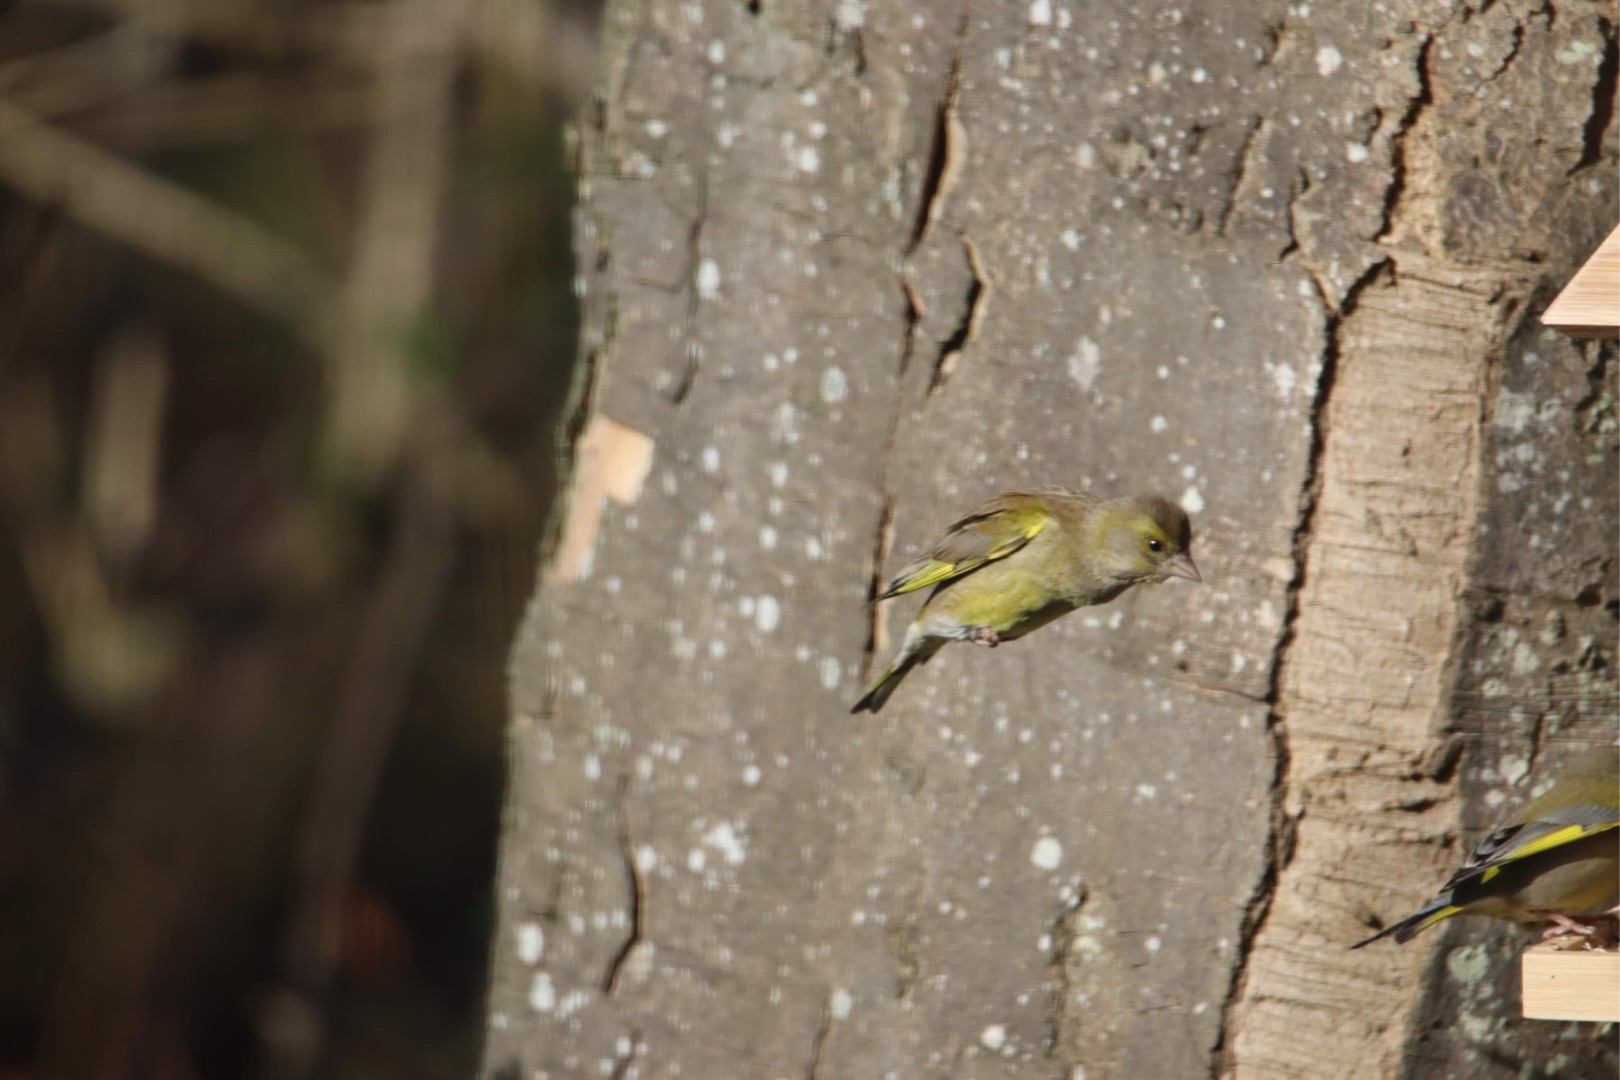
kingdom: Plantae
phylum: Tracheophyta
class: Liliopsida
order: Poales
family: Poaceae
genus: Chloris
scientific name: Chloris chloris
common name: Grønirisk
